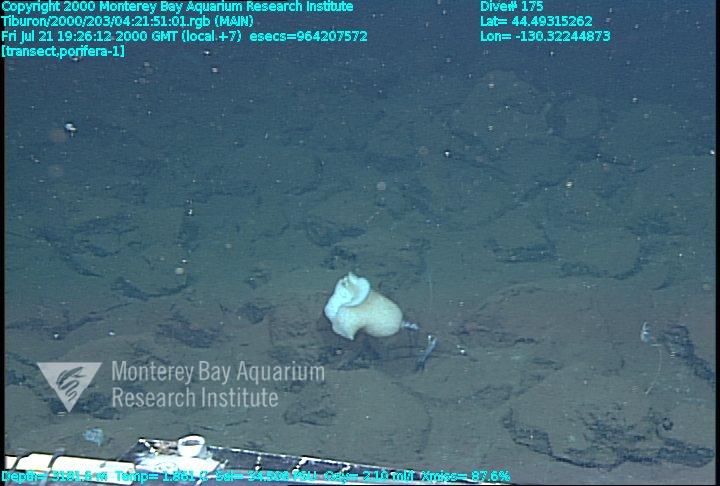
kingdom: Animalia
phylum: Porifera
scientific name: Porifera
